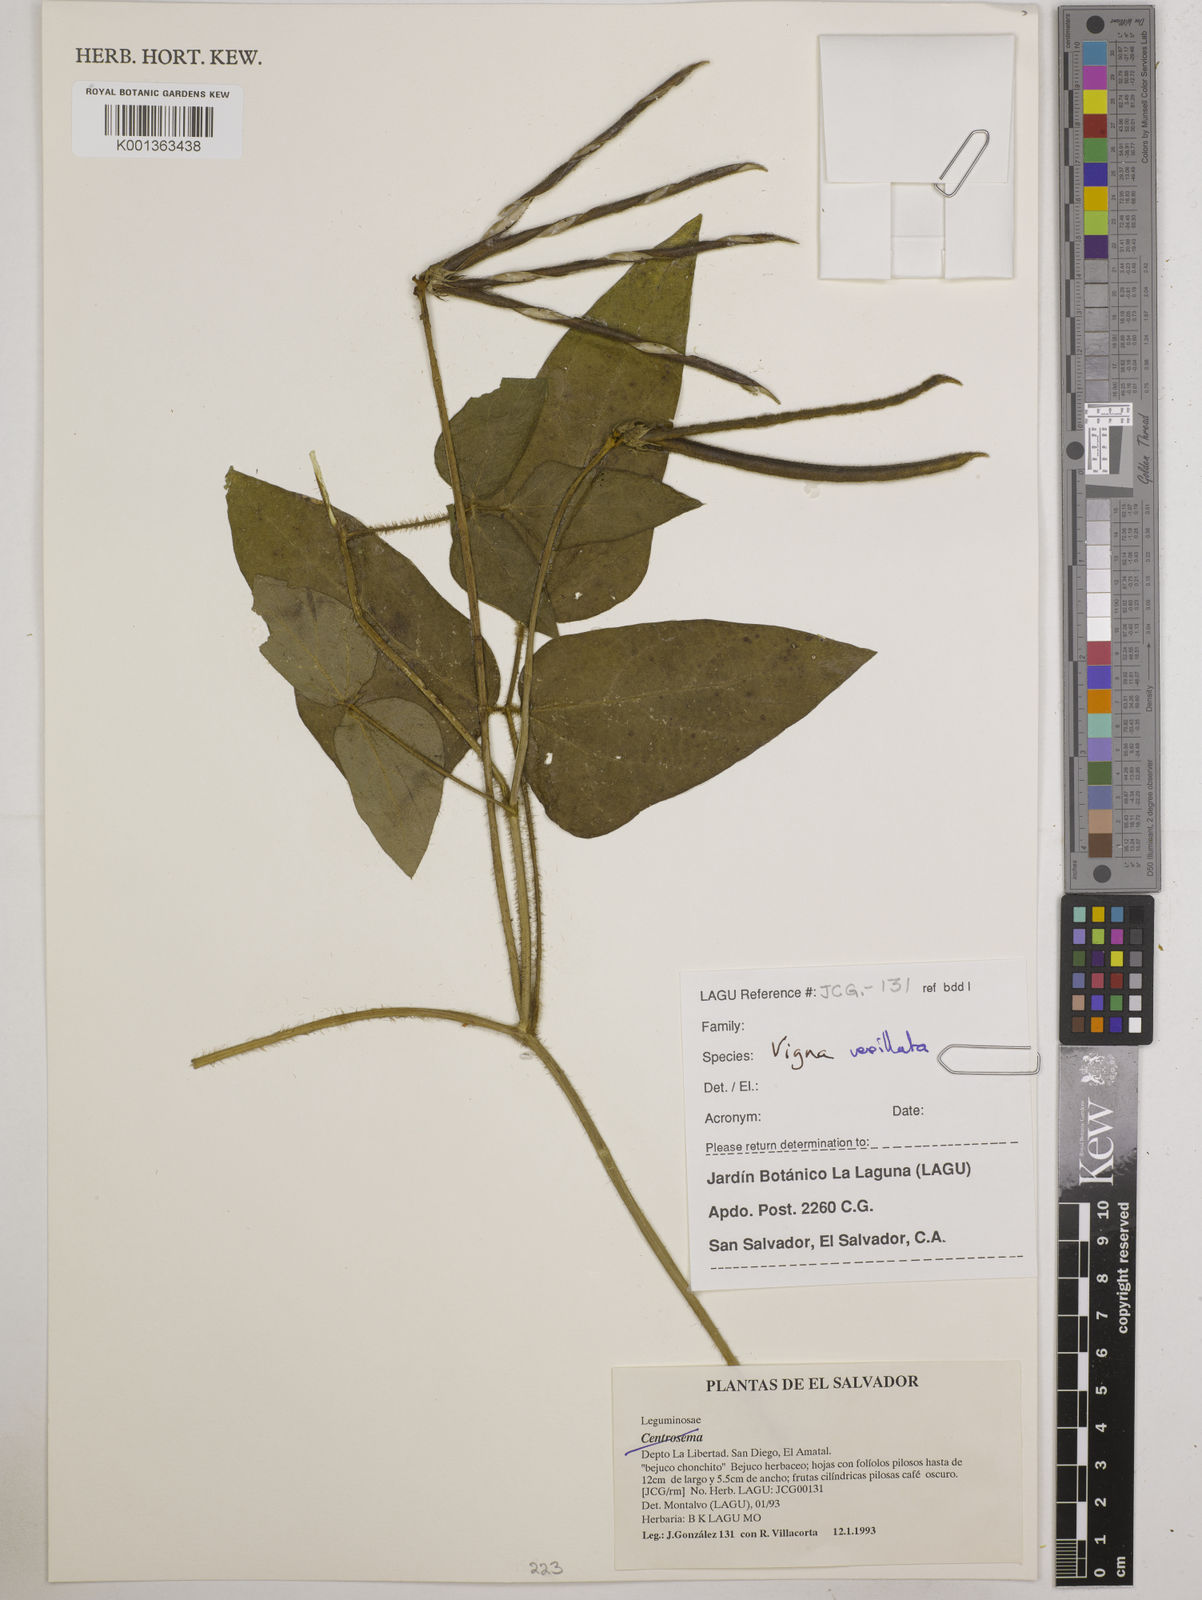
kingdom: Plantae
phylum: Tracheophyta
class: Magnoliopsida
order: Fabales
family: Fabaceae
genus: Vigna
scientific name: Vigna vexillata
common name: Zombi pea
